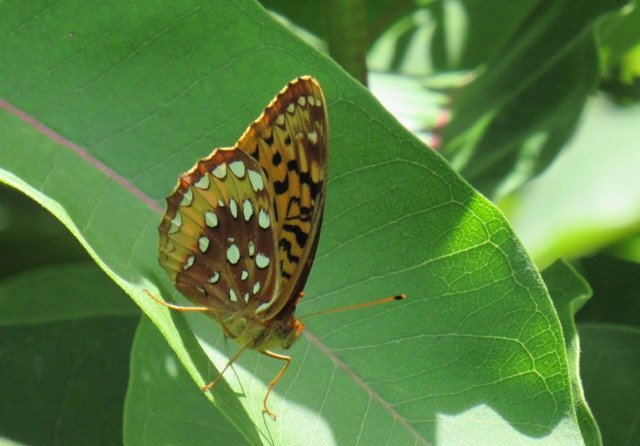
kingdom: Animalia
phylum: Arthropoda
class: Insecta
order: Lepidoptera
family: Nymphalidae
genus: Speyeria
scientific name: Speyeria cybele
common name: Great Spangled Fritillary
